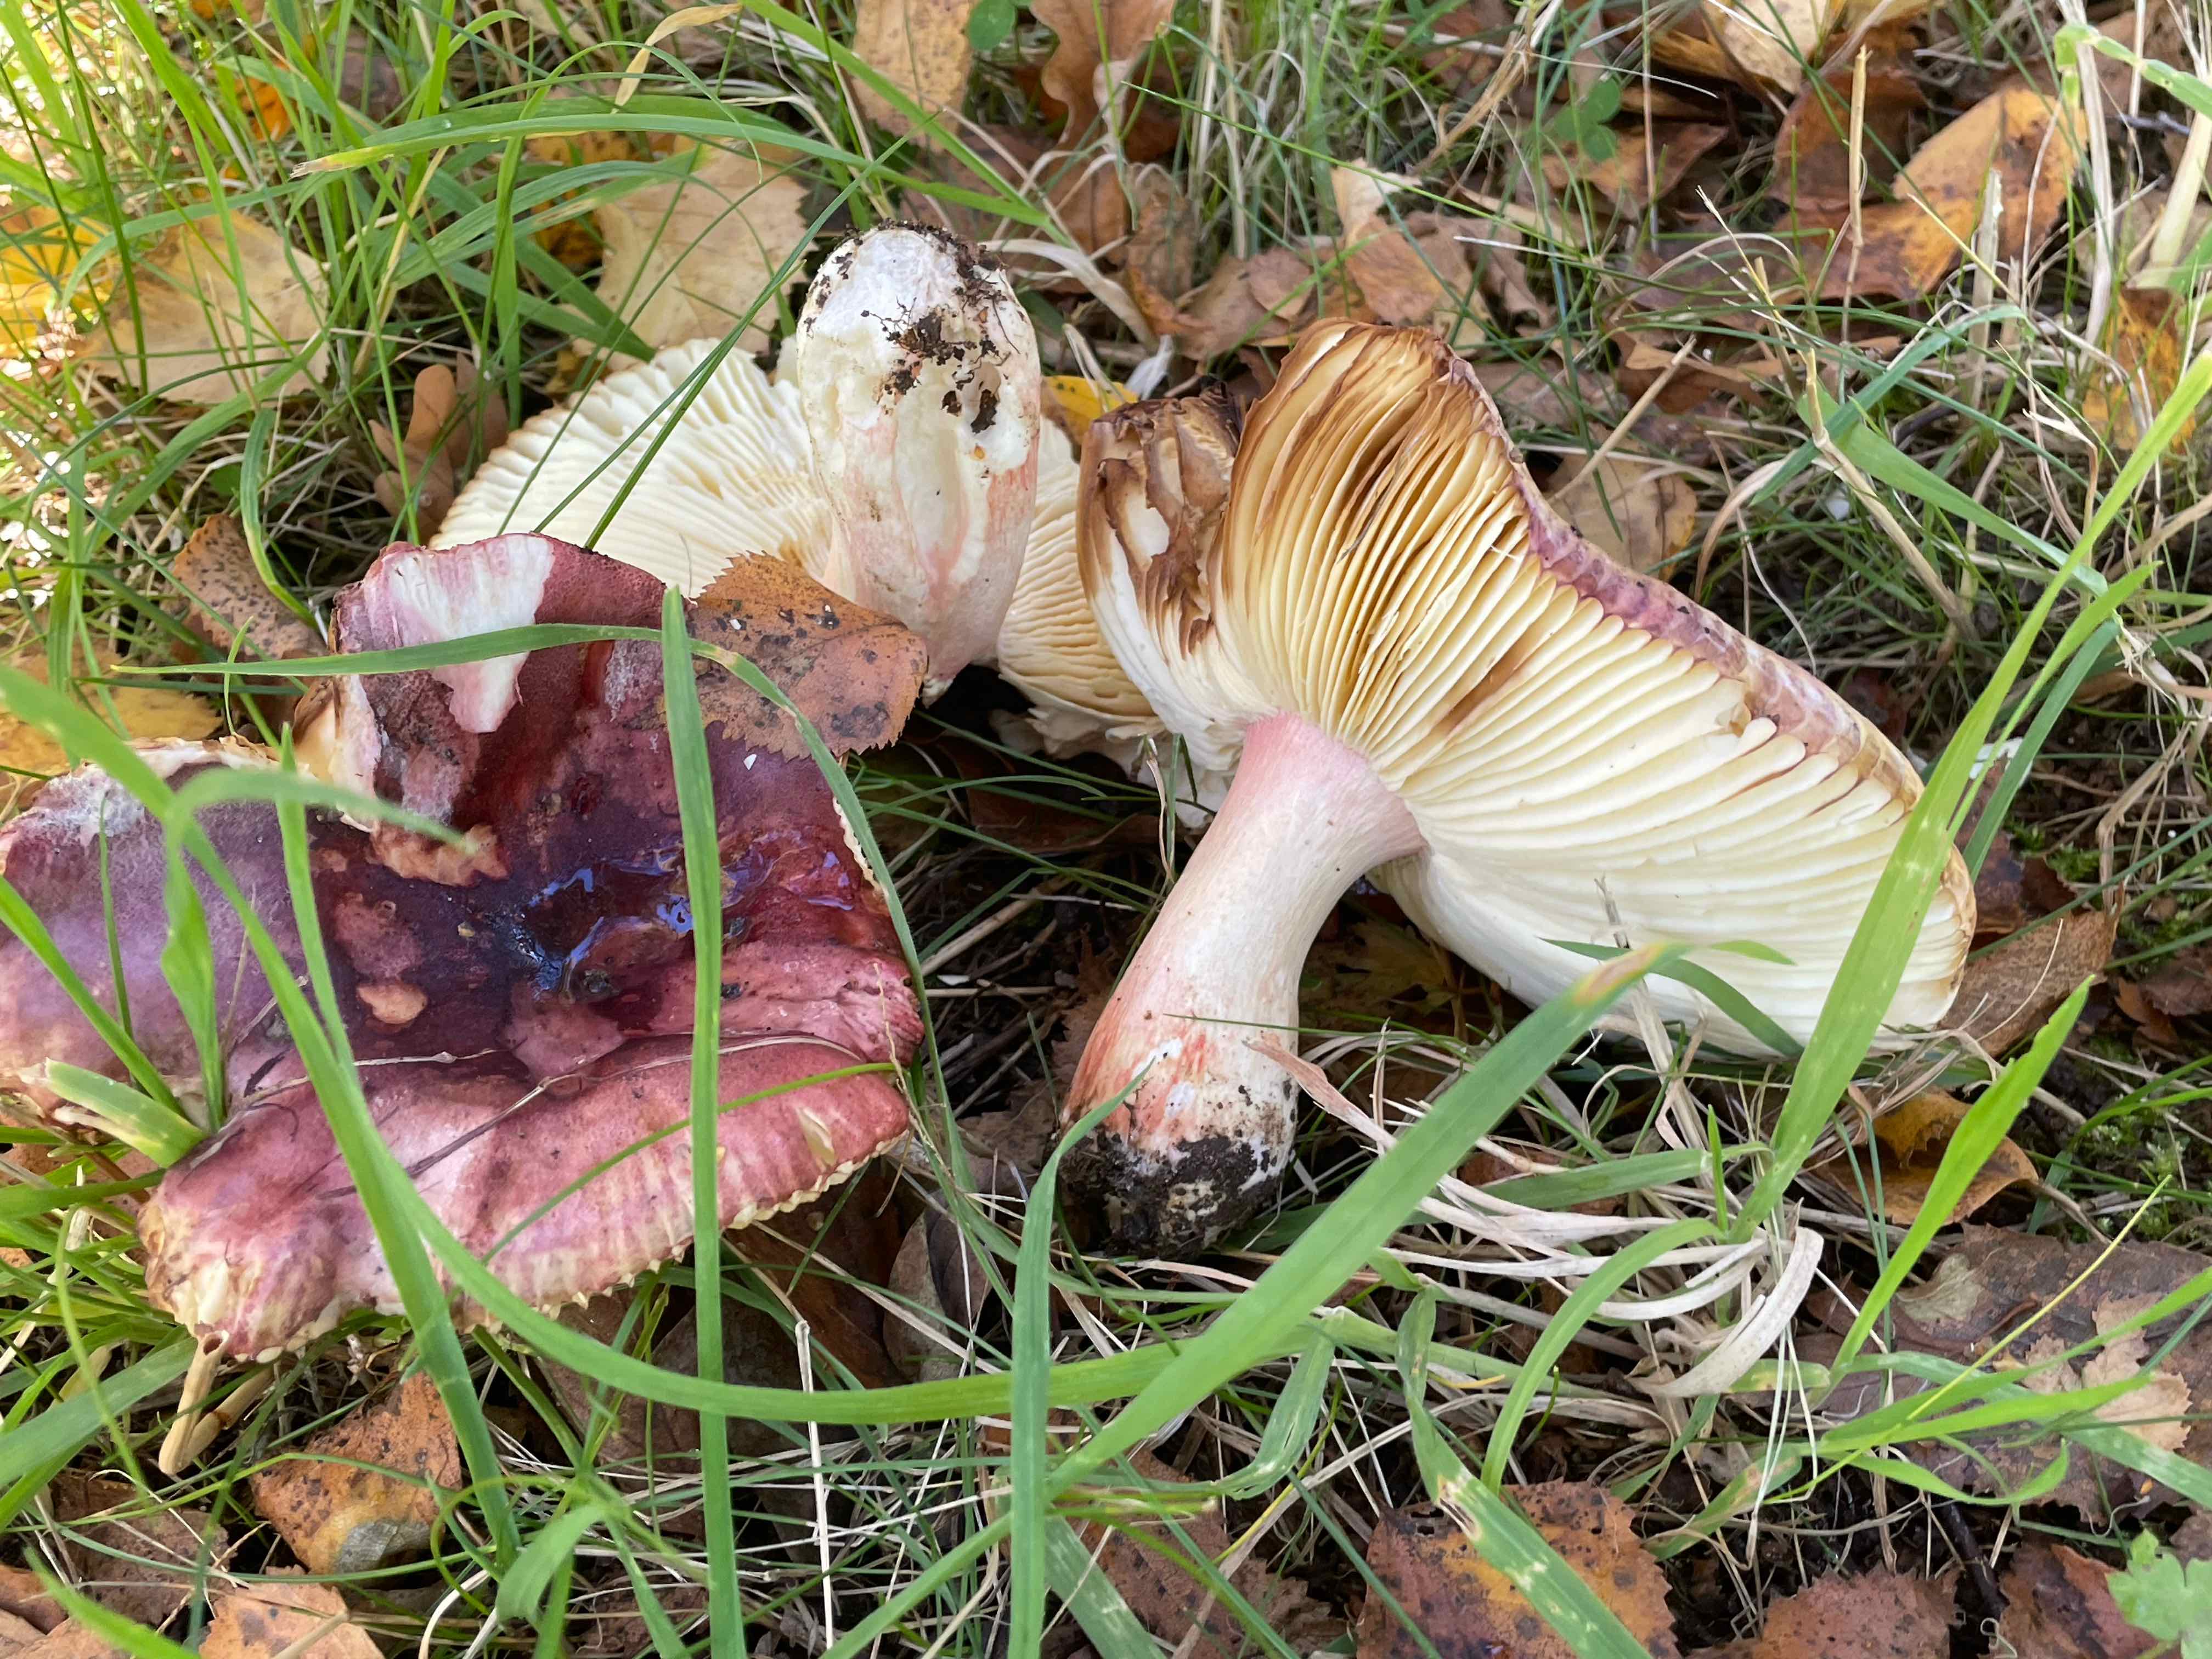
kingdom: Fungi
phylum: Basidiomycota
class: Agaricomycetes
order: Russulales
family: Russulaceae
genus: Russula
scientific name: Russula graveolens
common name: bugtet skørhat
